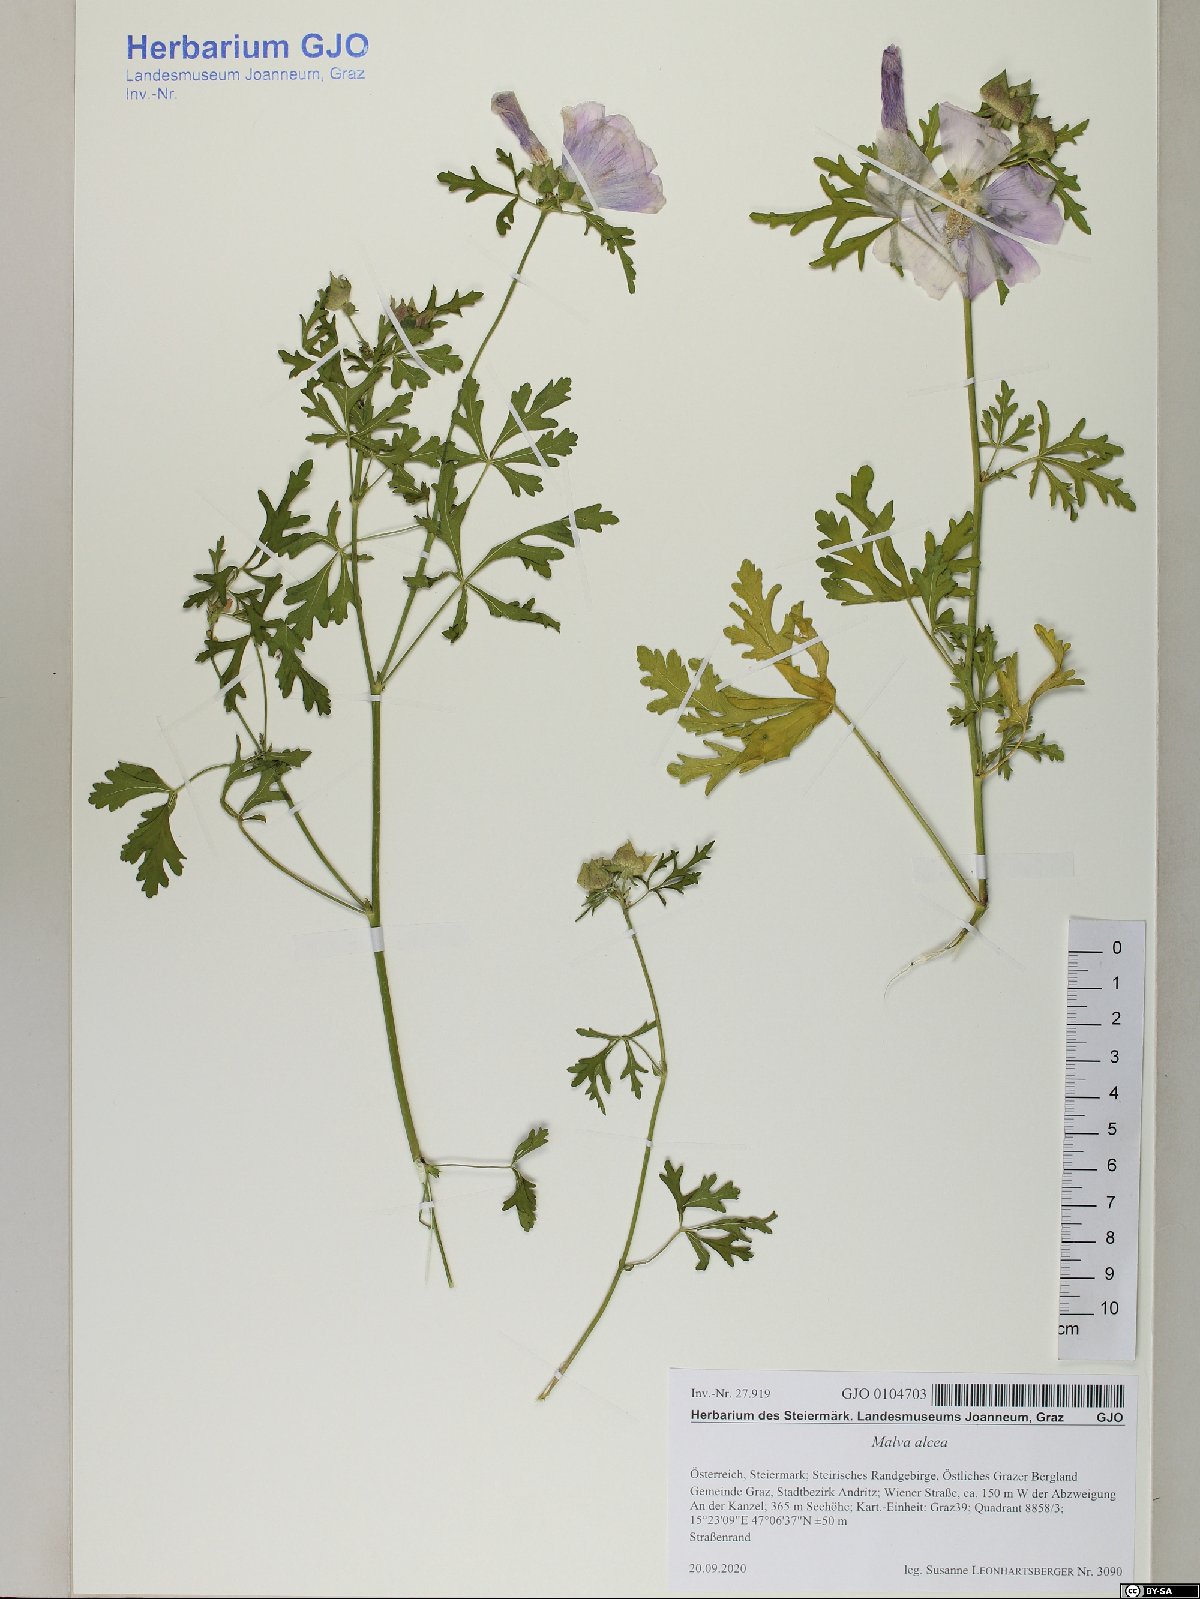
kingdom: Plantae
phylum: Tracheophyta
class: Magnoliopsida
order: Malvales
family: Malvaceae
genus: Malva
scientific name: Malva alcea
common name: Greater musk-mallow
